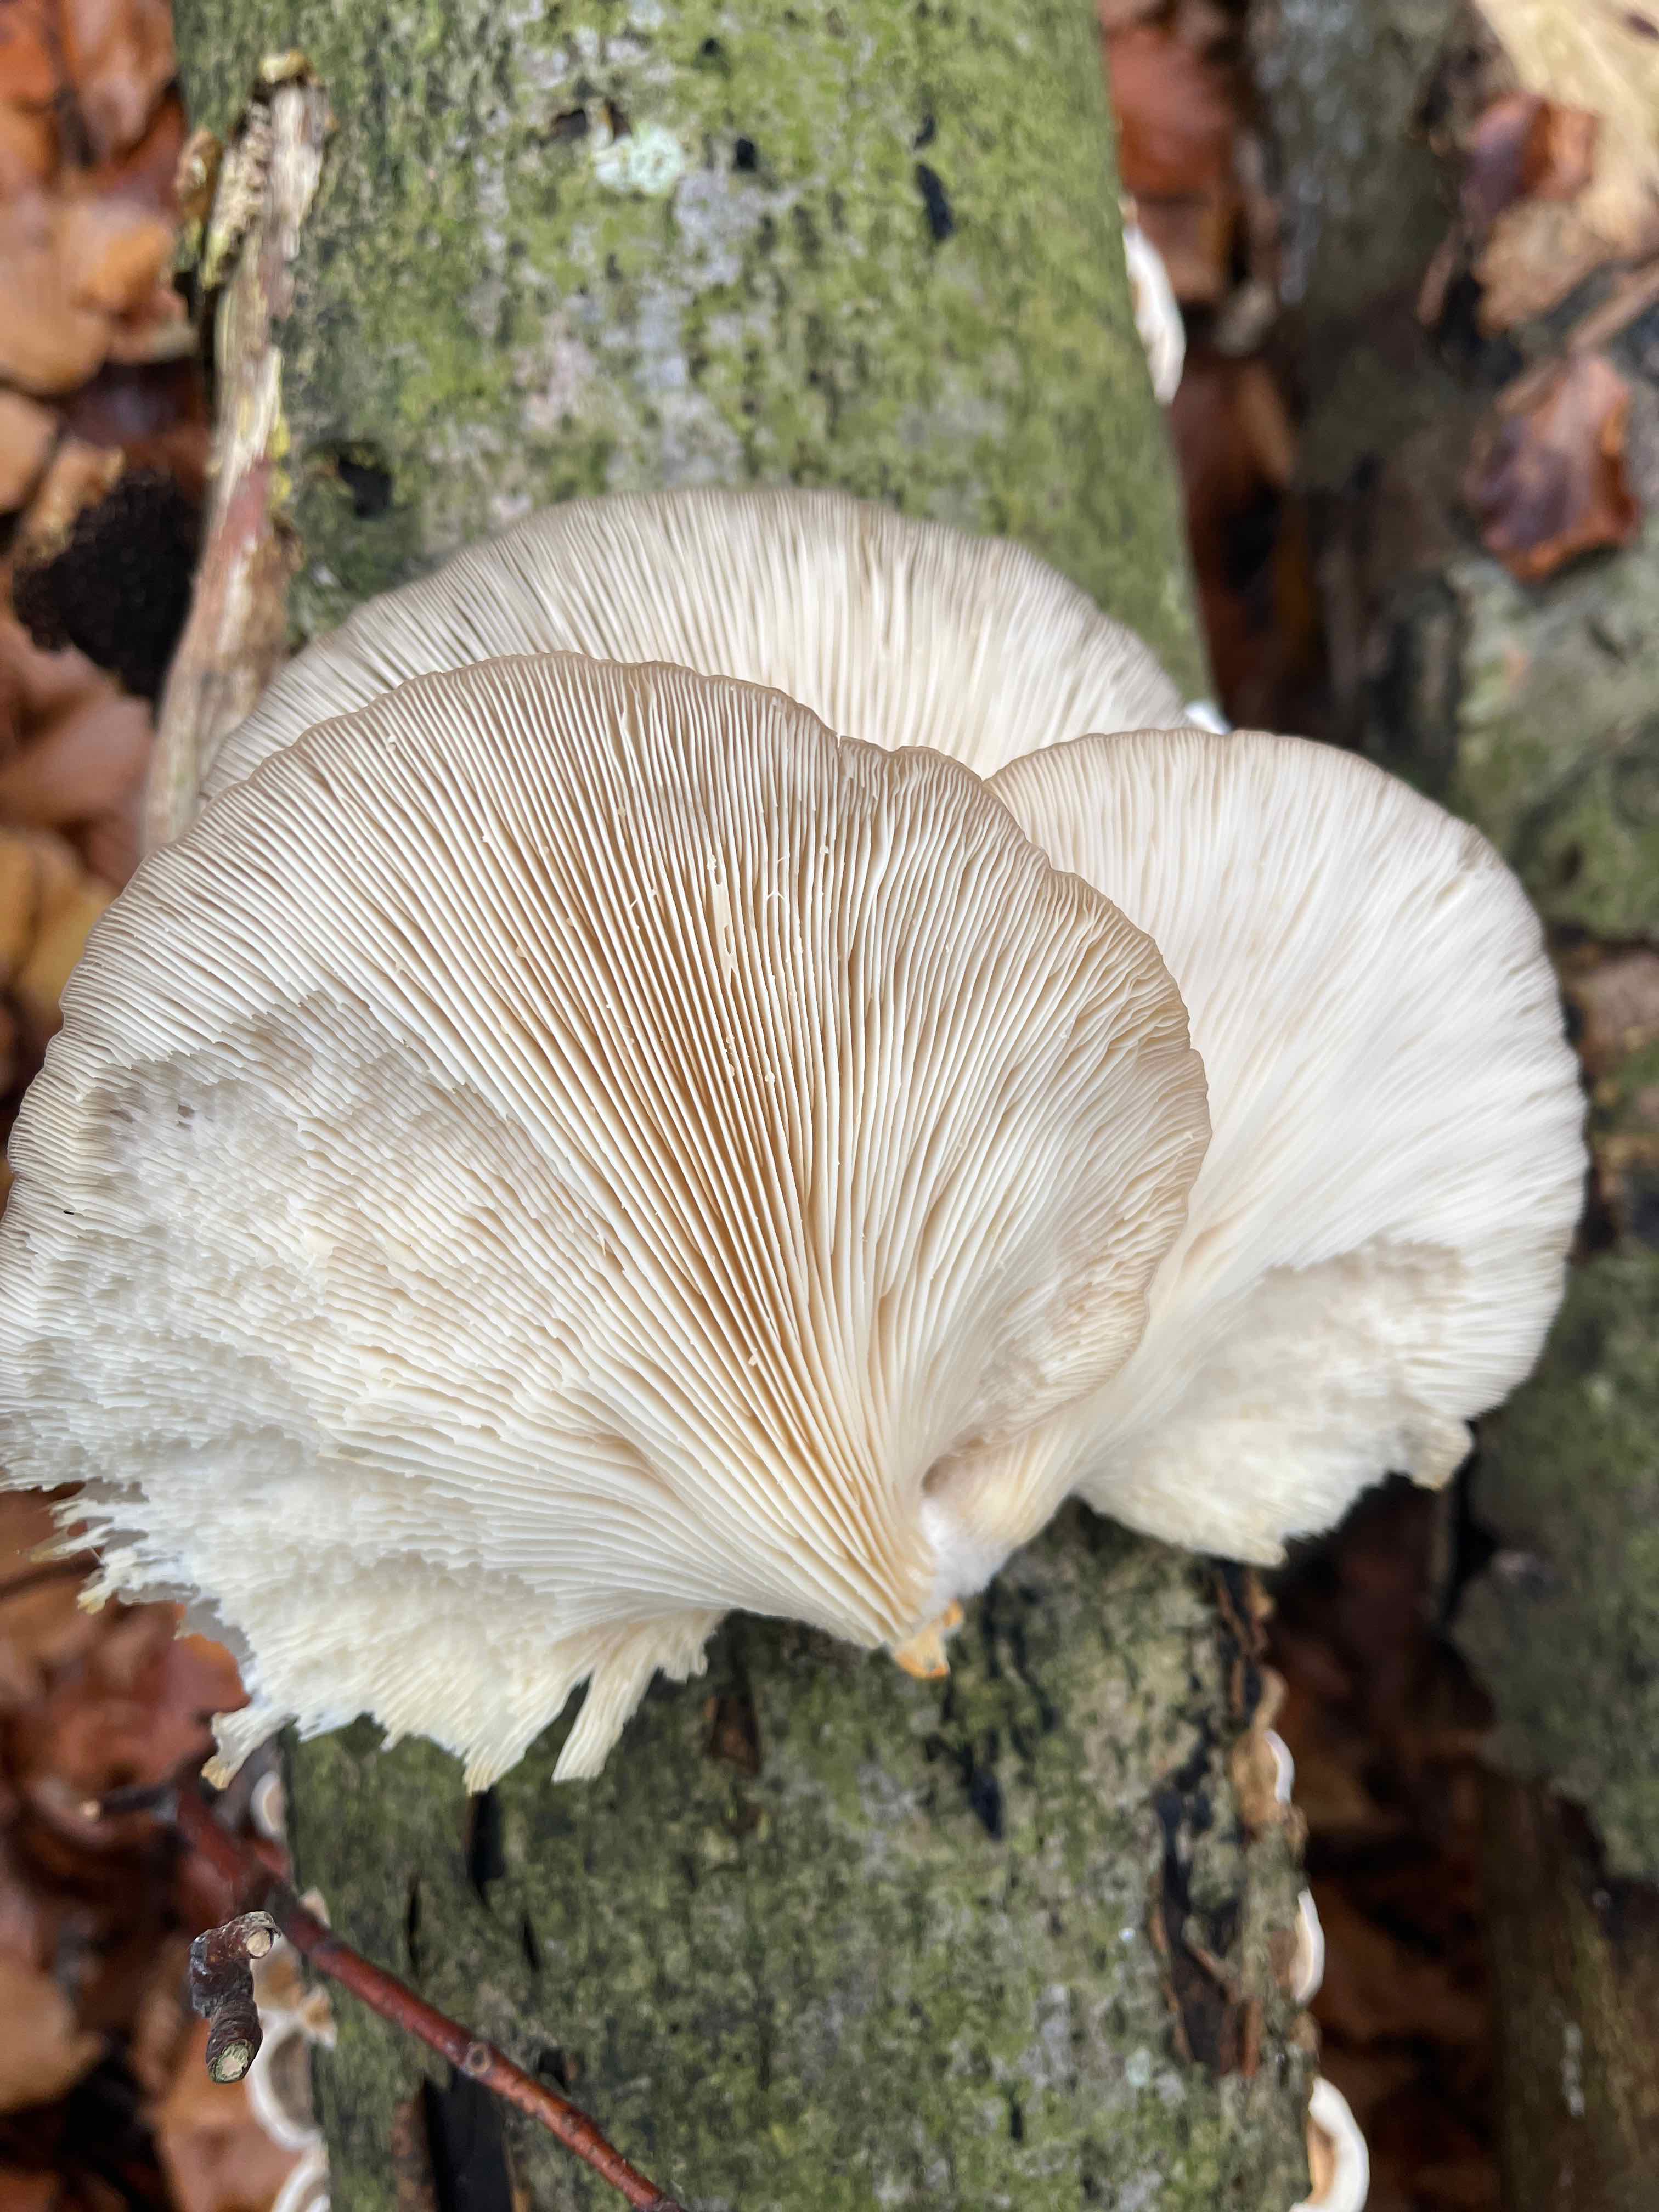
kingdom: Fungi
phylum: Basidiomycota
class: Agaricomycetes
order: Agaricales
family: Pleurotaceae
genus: Pleurotus
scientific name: Pleurotus pulmonarius
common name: sommer-østershat
